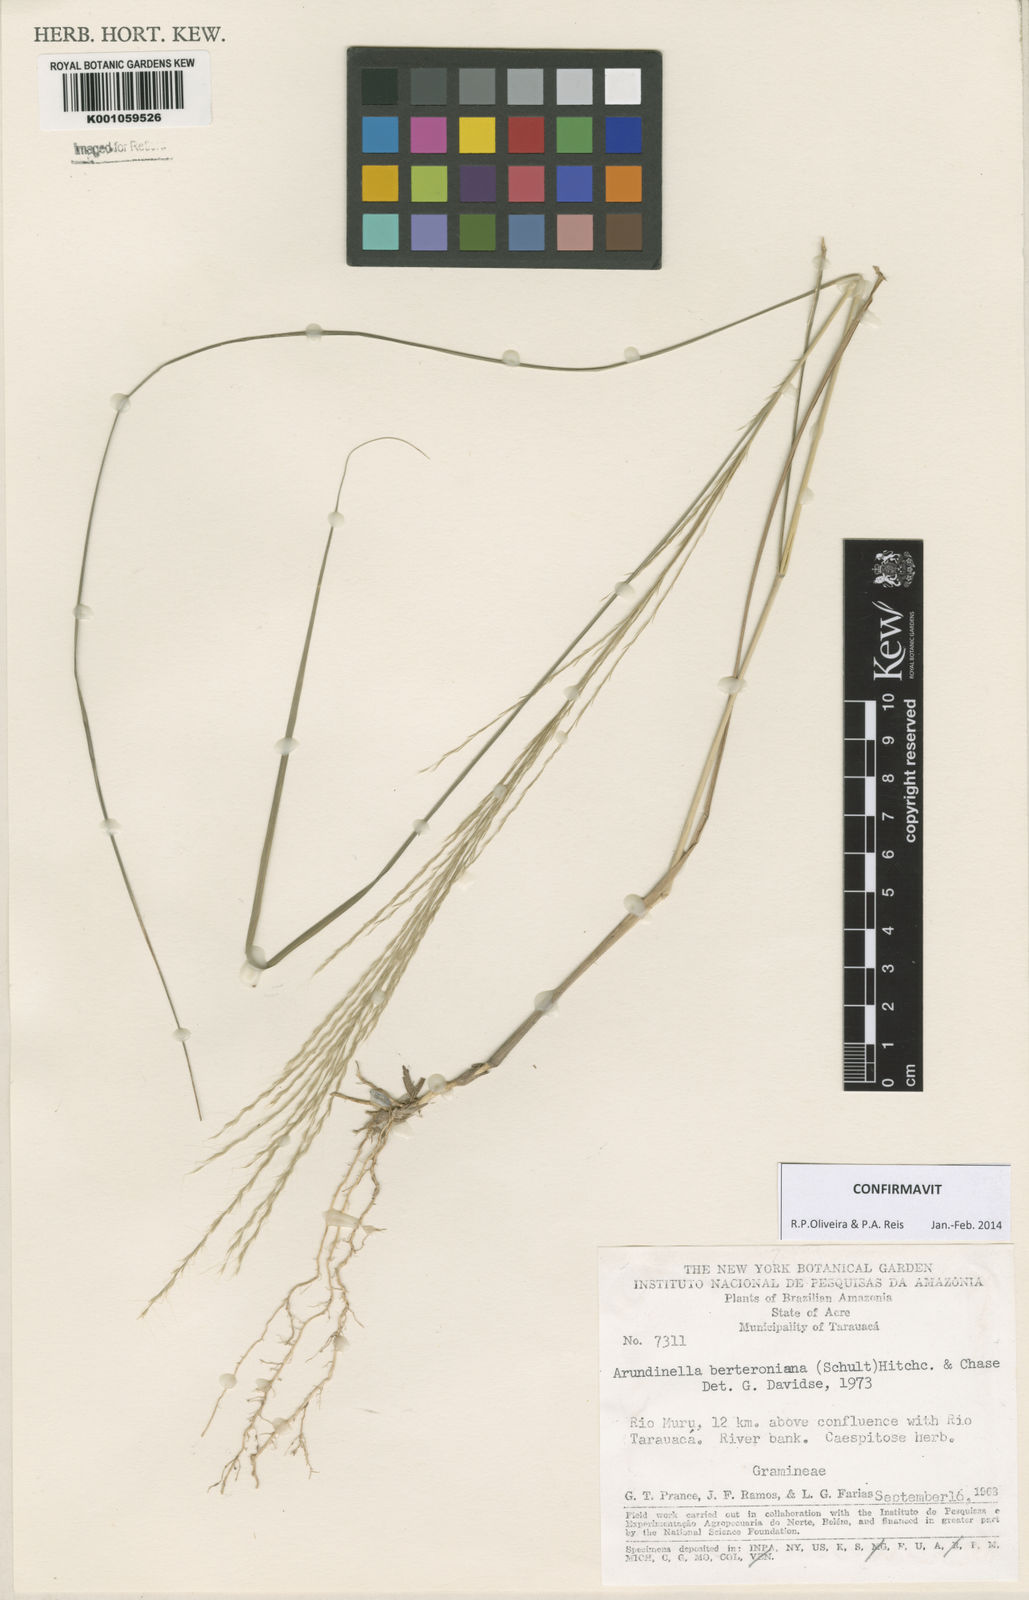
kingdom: Plantae
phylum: Tracheophyta
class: Liliopsida
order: Poales
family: Poaceae
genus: Arundinella
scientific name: Arundinella berteroniana
